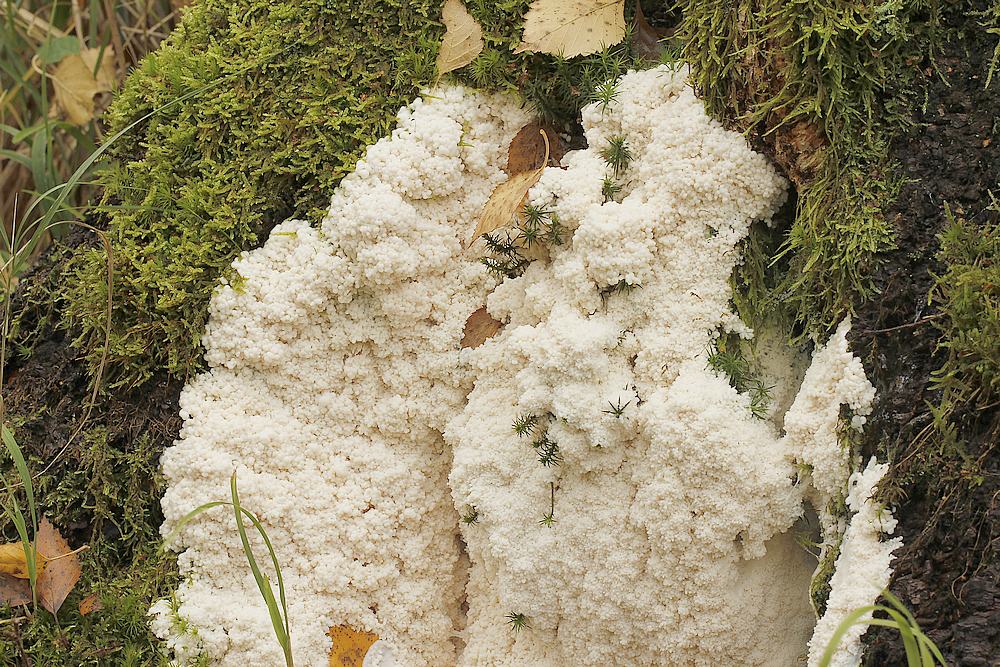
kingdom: Protozoa
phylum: Mycetozoa
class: Myxomycetes
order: Stemonitidales
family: Stemonitidaceae
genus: Brefeldia
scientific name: Brefeldia maxima
